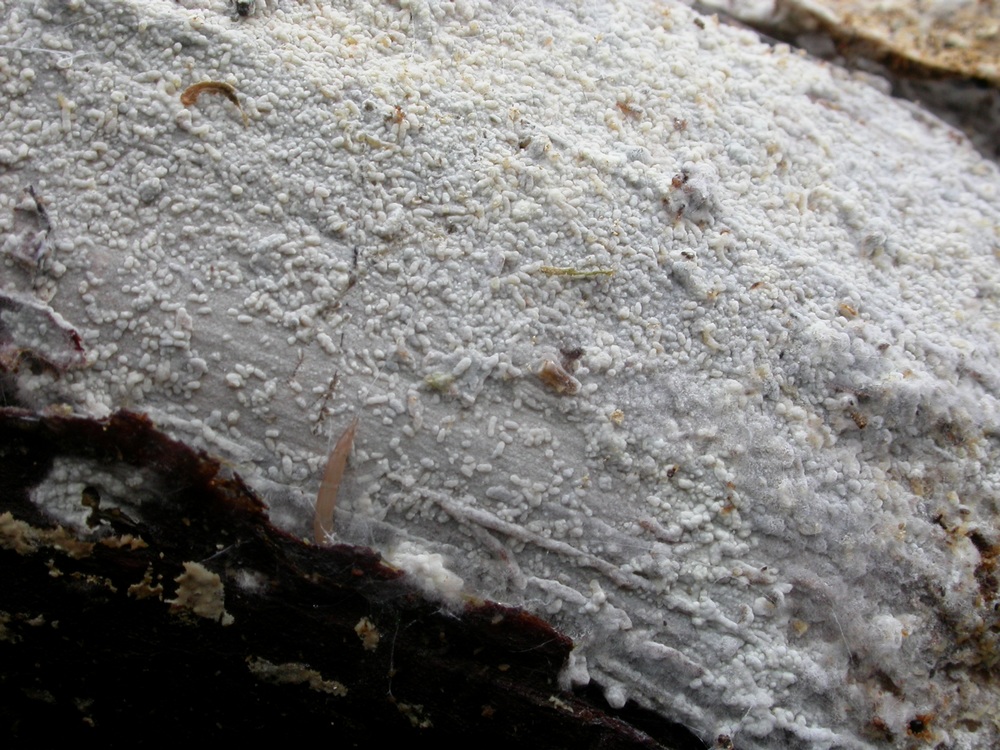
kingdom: Fungi
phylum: Basidiomycota
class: Agaricomycetes
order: Hymenochaetales
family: Hymenochaetaceae
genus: Hastodontia
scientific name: Hastodontia hastata
